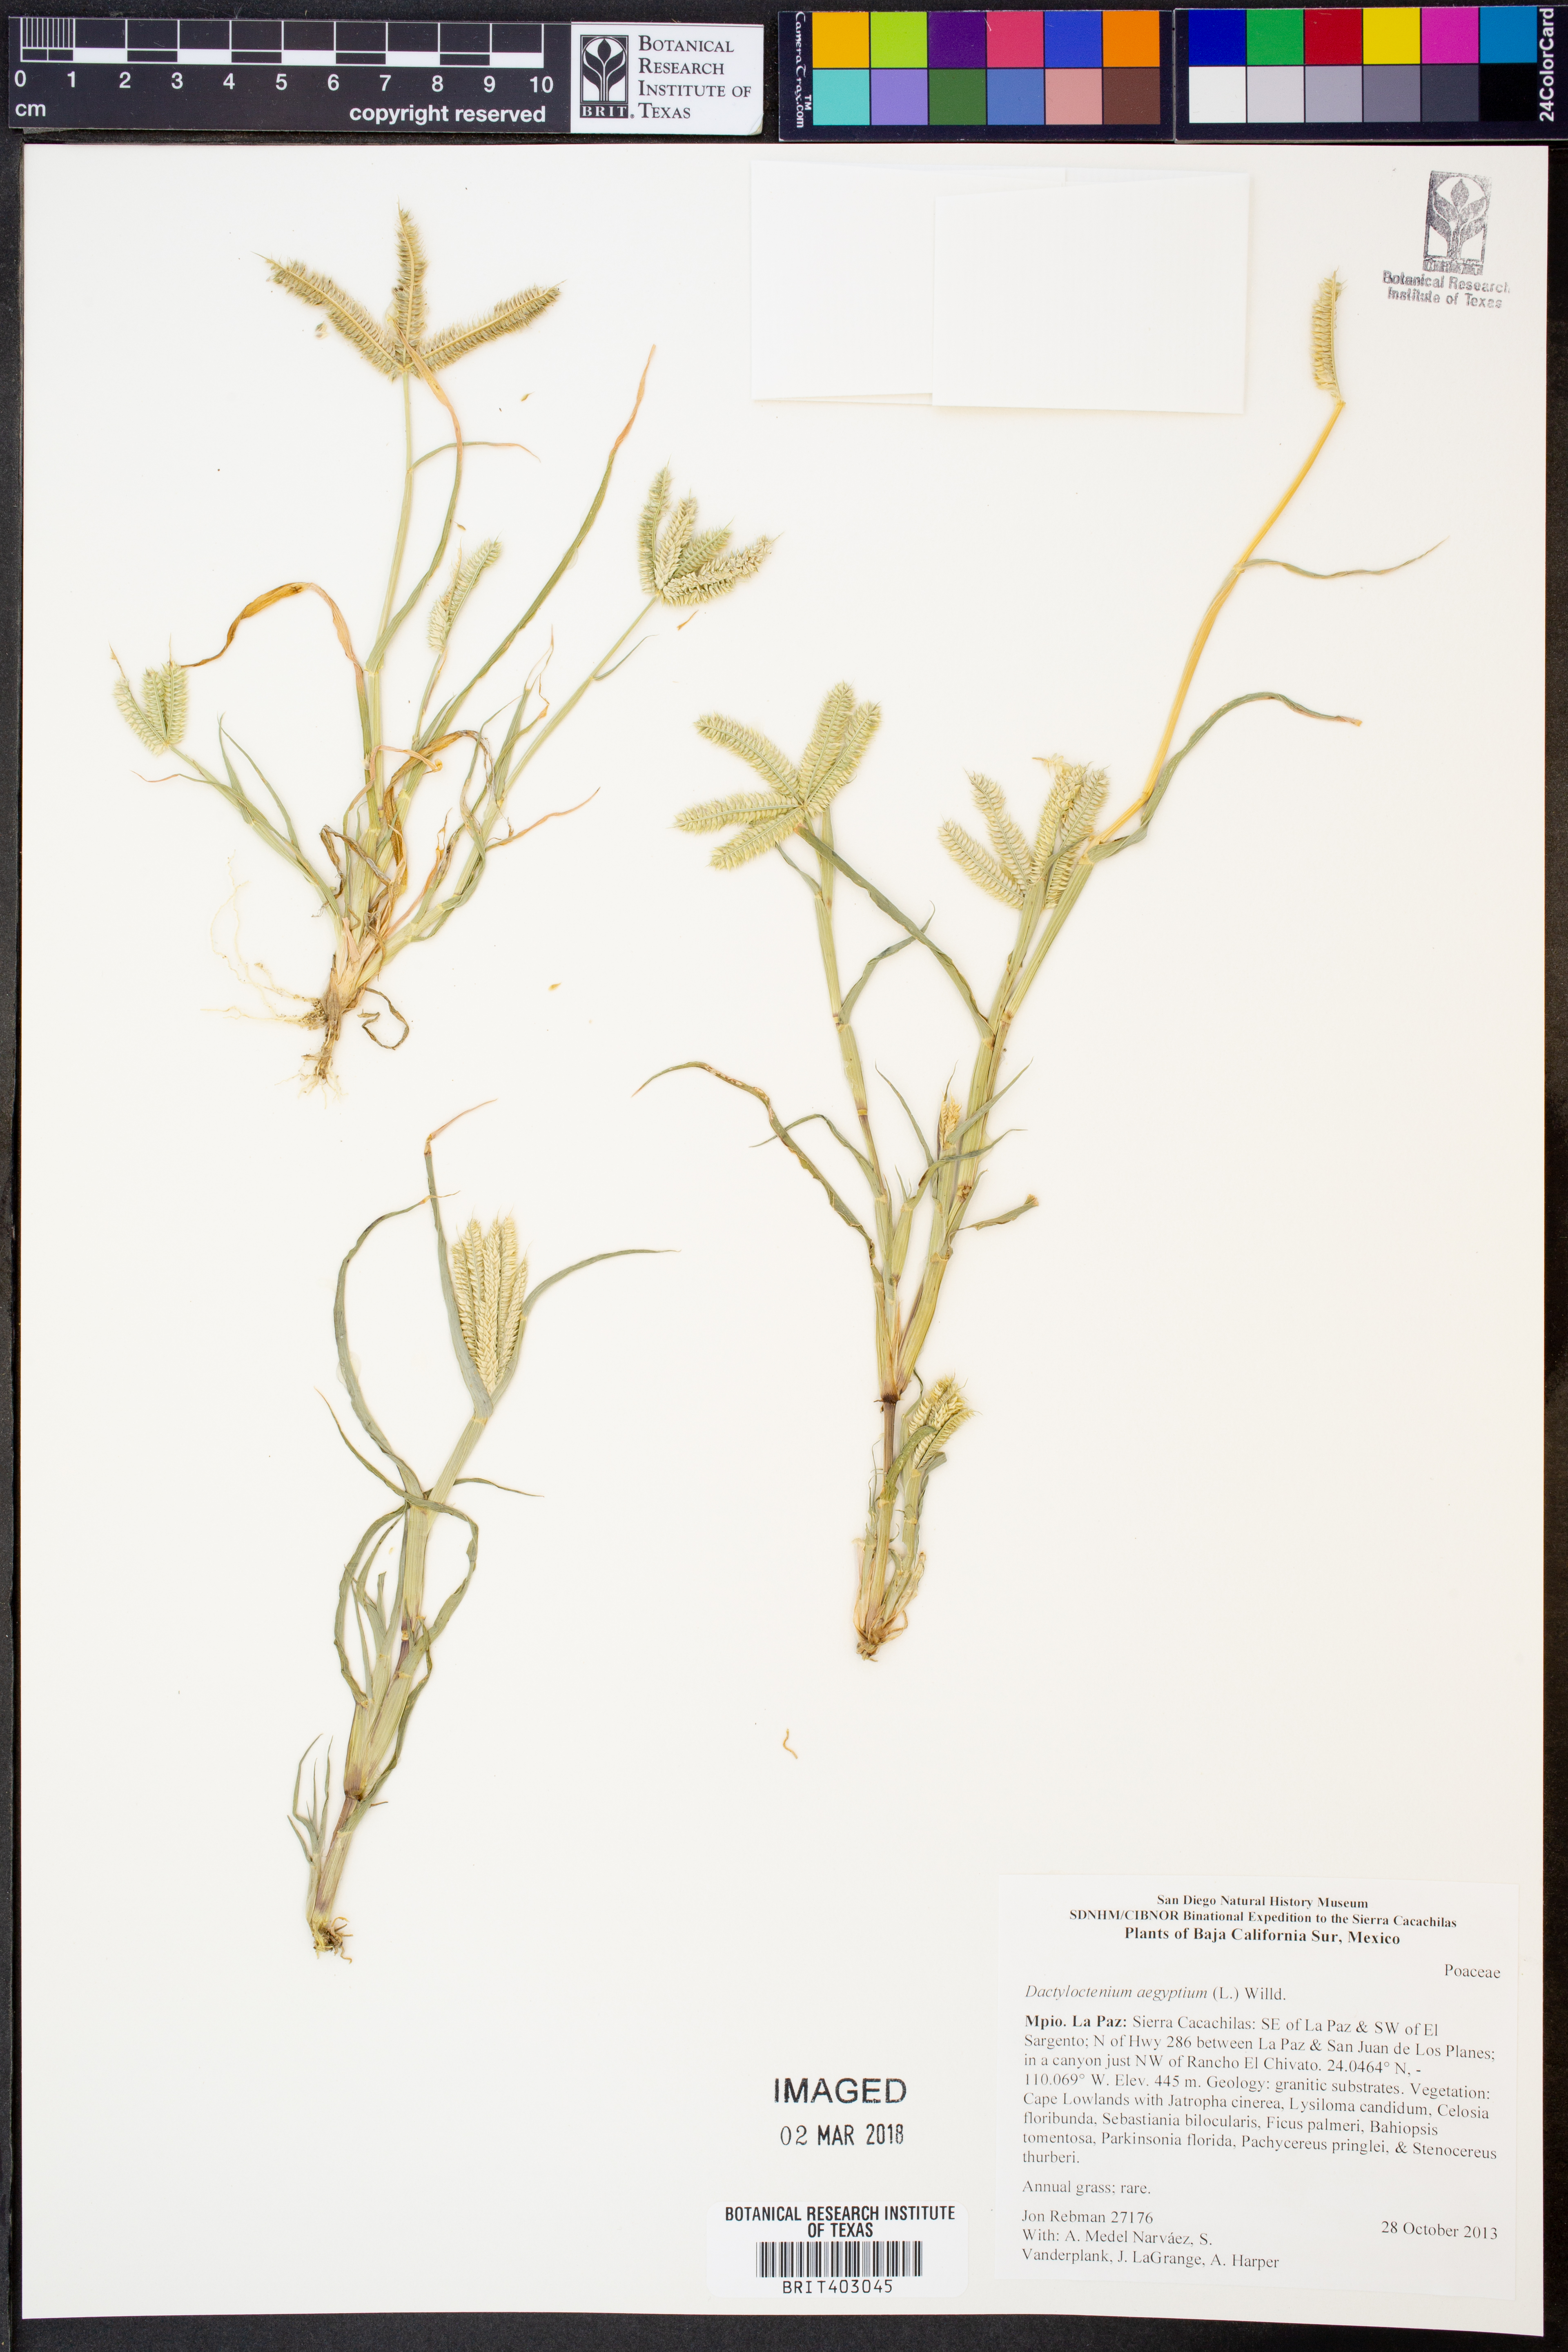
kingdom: Plantae
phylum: Tracheophyta
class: Liliopsida
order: Poales
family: Poaceae
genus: Dactyloctenium
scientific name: Dactyloctenium aegyptium
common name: Egyptian grass
